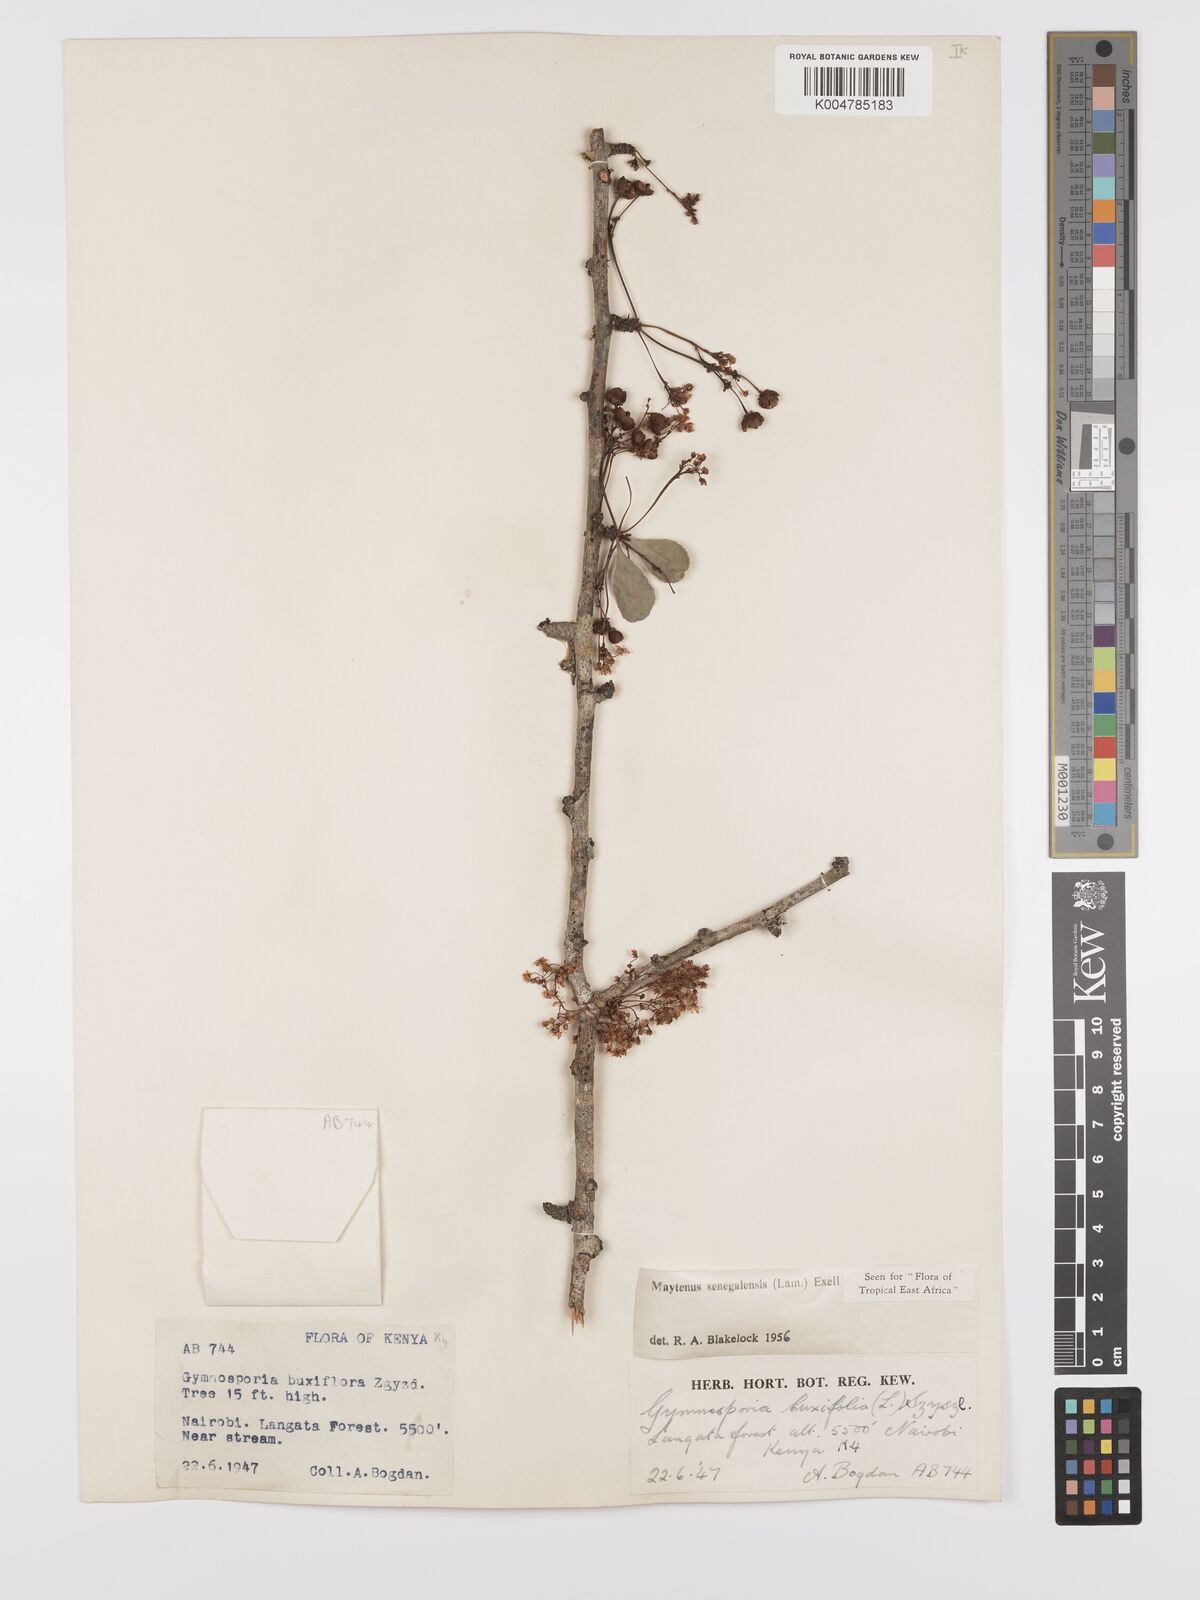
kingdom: Plantae
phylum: Tracheophyta
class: Magnoliopsida
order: Celastrales
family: Celastraceae
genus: Gymnosporia
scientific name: Gymnosporia heterophylla
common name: Angle-stem spikethorn
